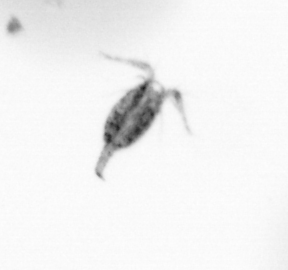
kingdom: Animalia
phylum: Arthropoda
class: Copepoda
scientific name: Copepoda
